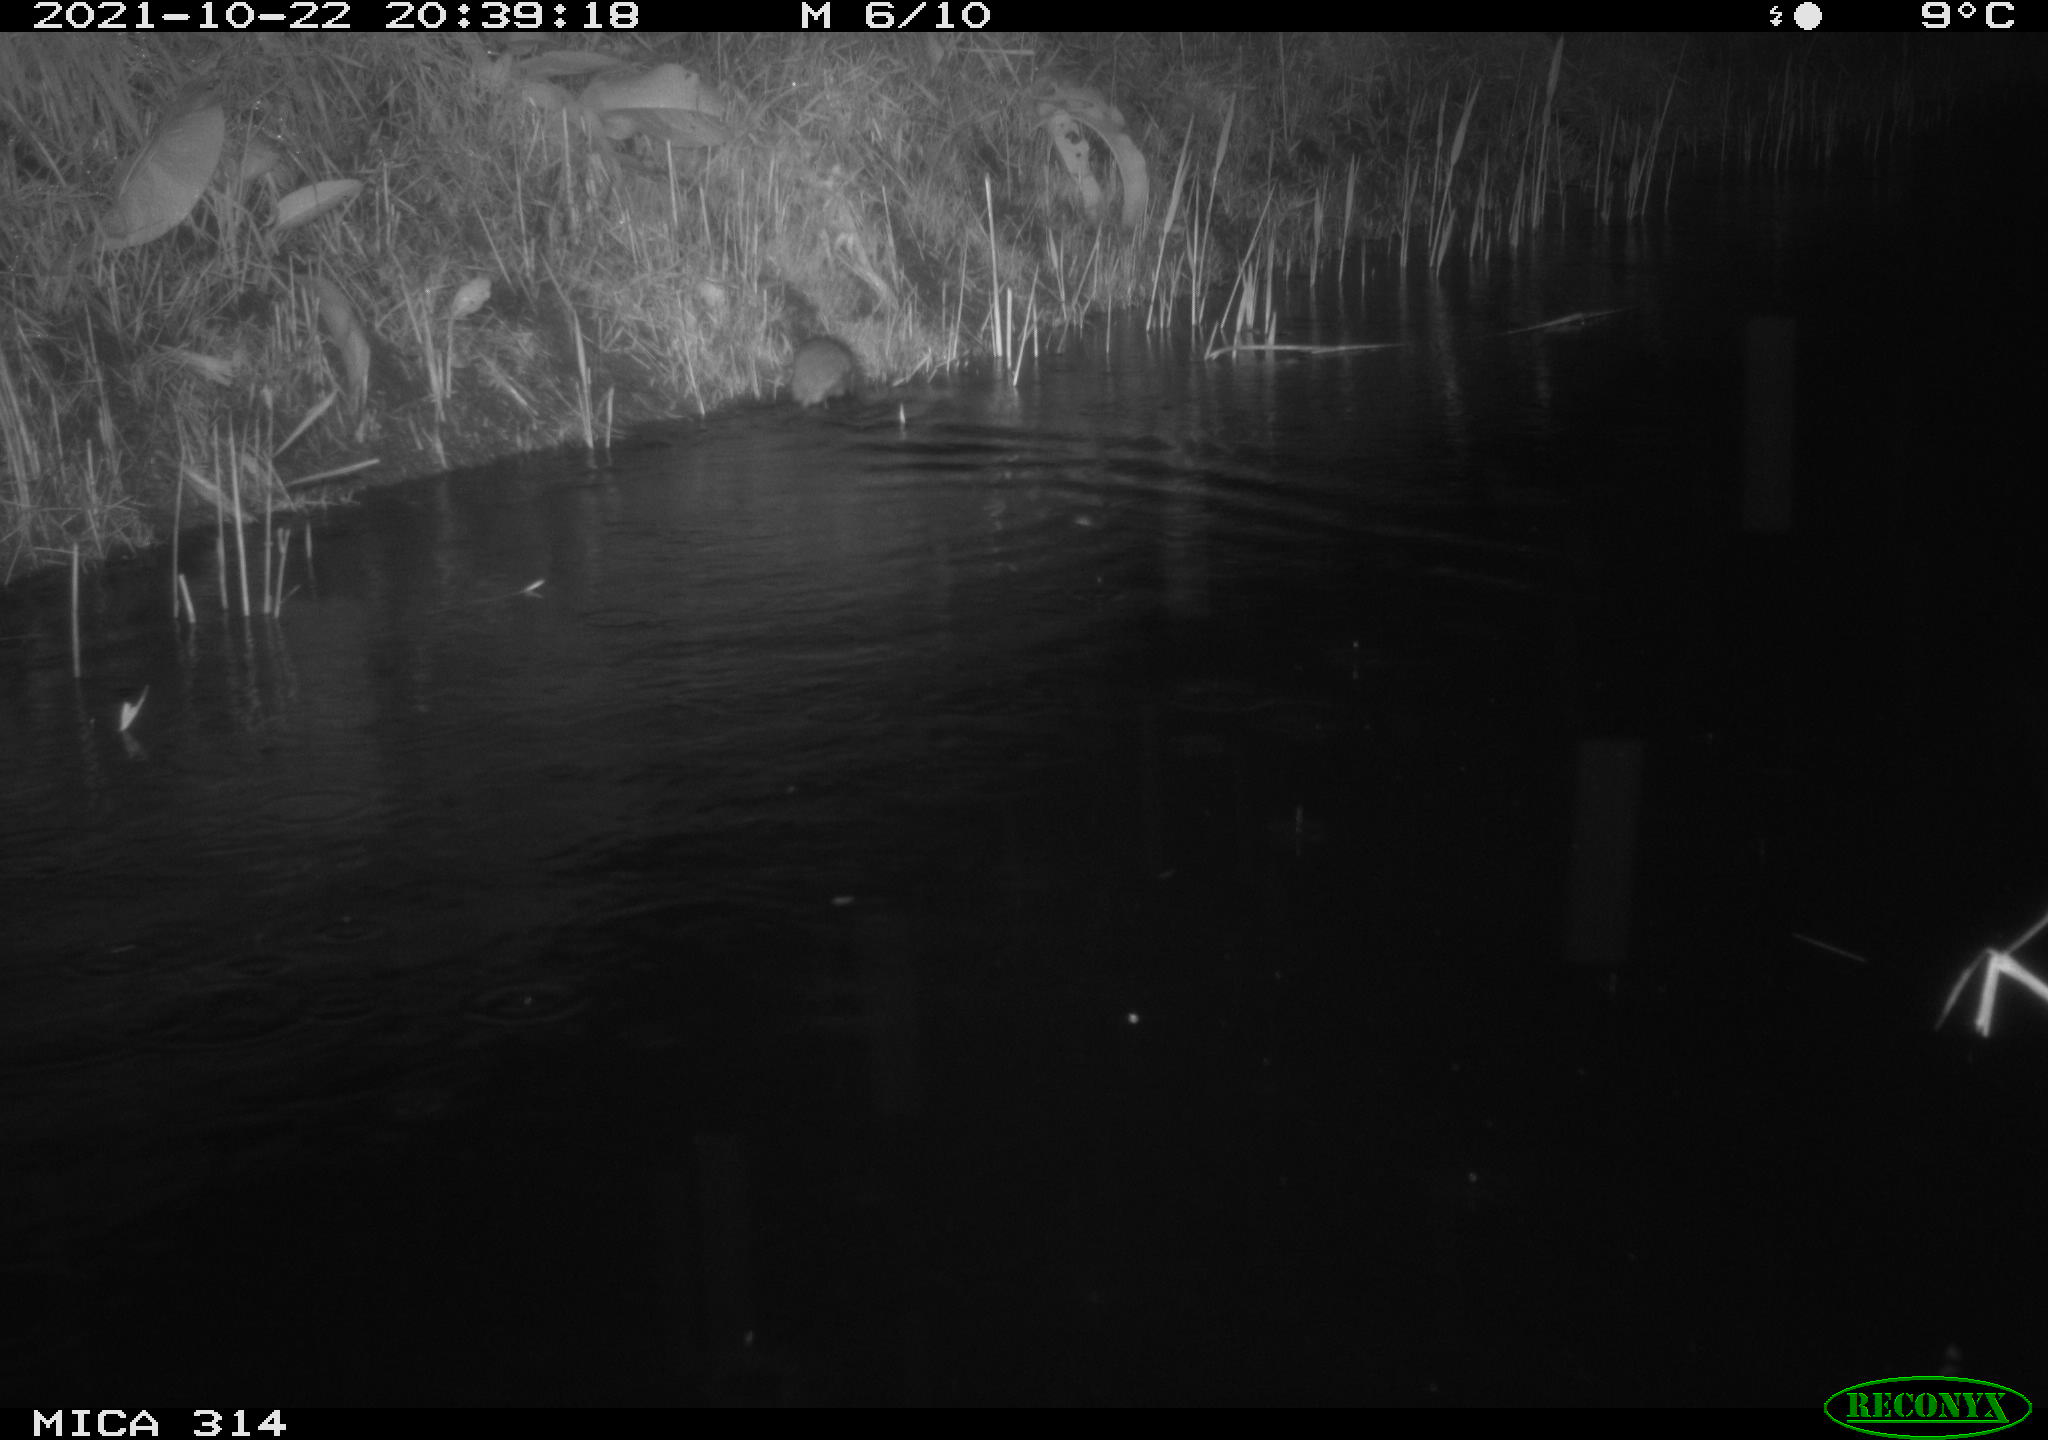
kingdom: Animalia
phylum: Chordata
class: Mammalia
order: Rodentia
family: Muridae
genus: Rattus
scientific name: Rattus norvegicus
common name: Brown rat
